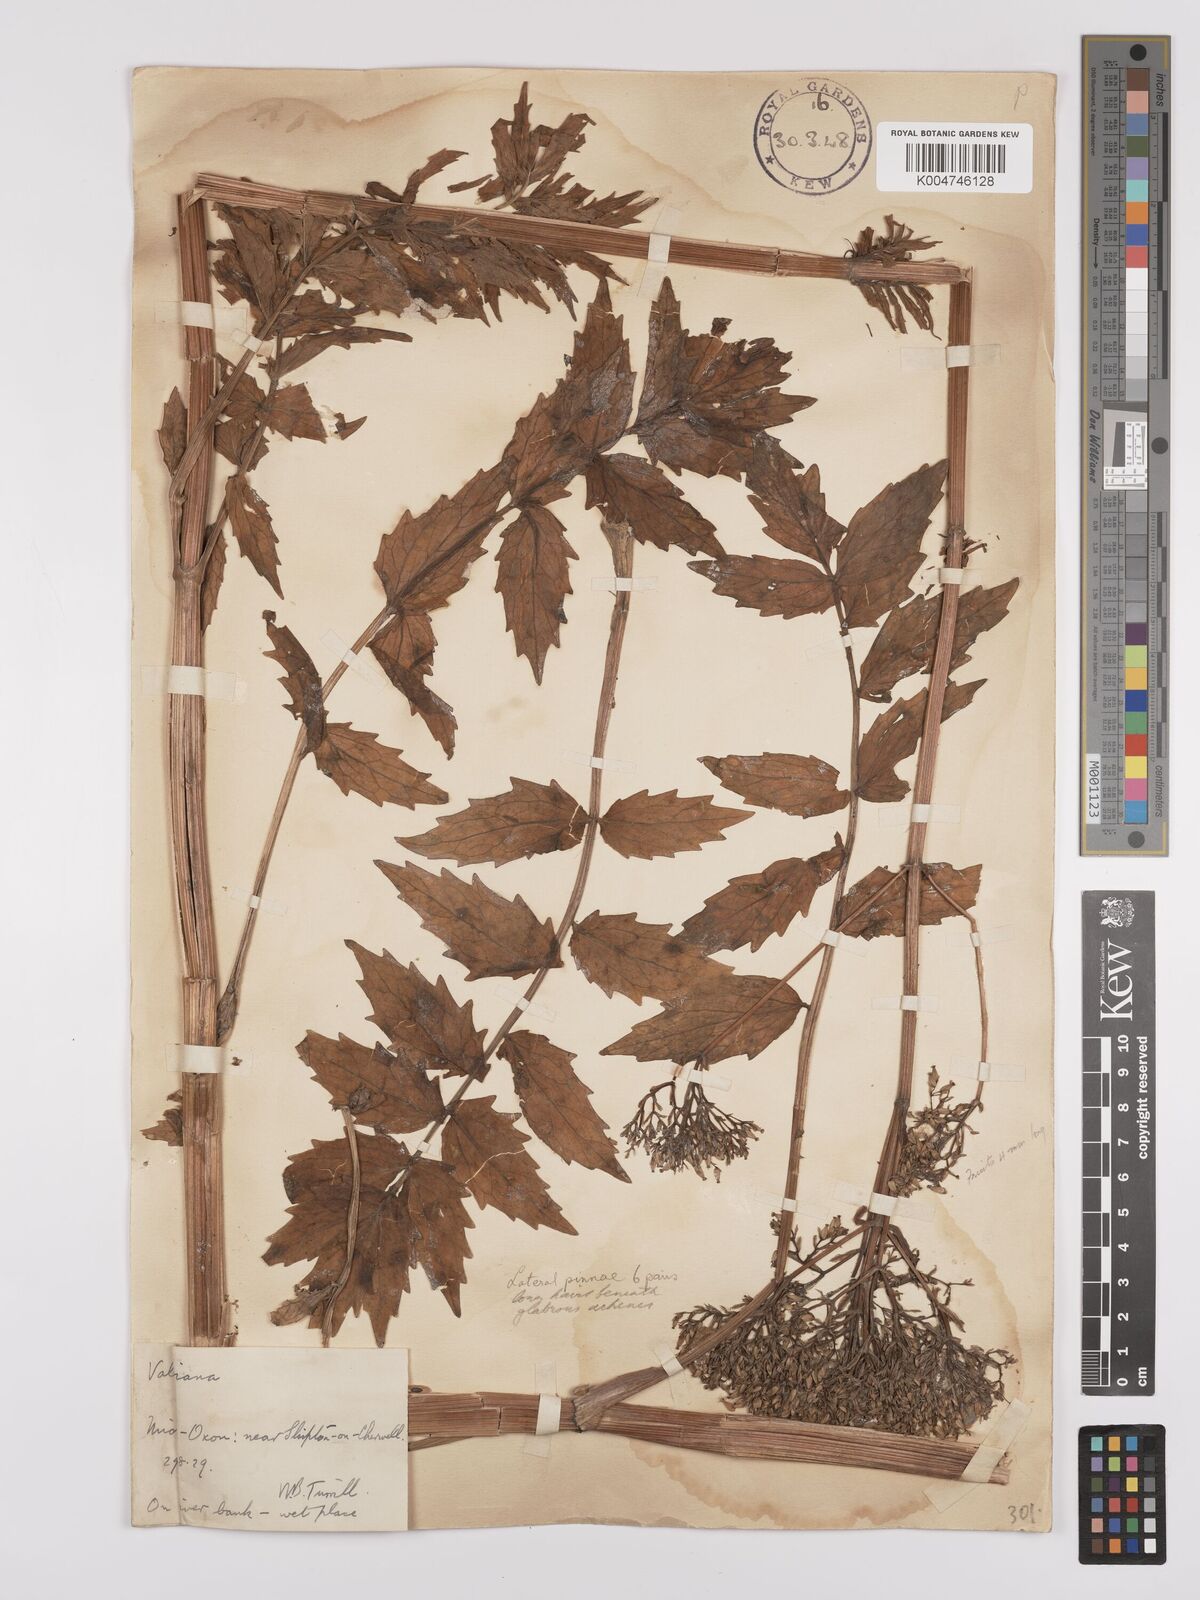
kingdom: Plantae
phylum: Tracheophyta
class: Magnoliopsida
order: Dipsacales
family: Caprifoliaceae
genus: Valeriana
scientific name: Valeriana excelsa
